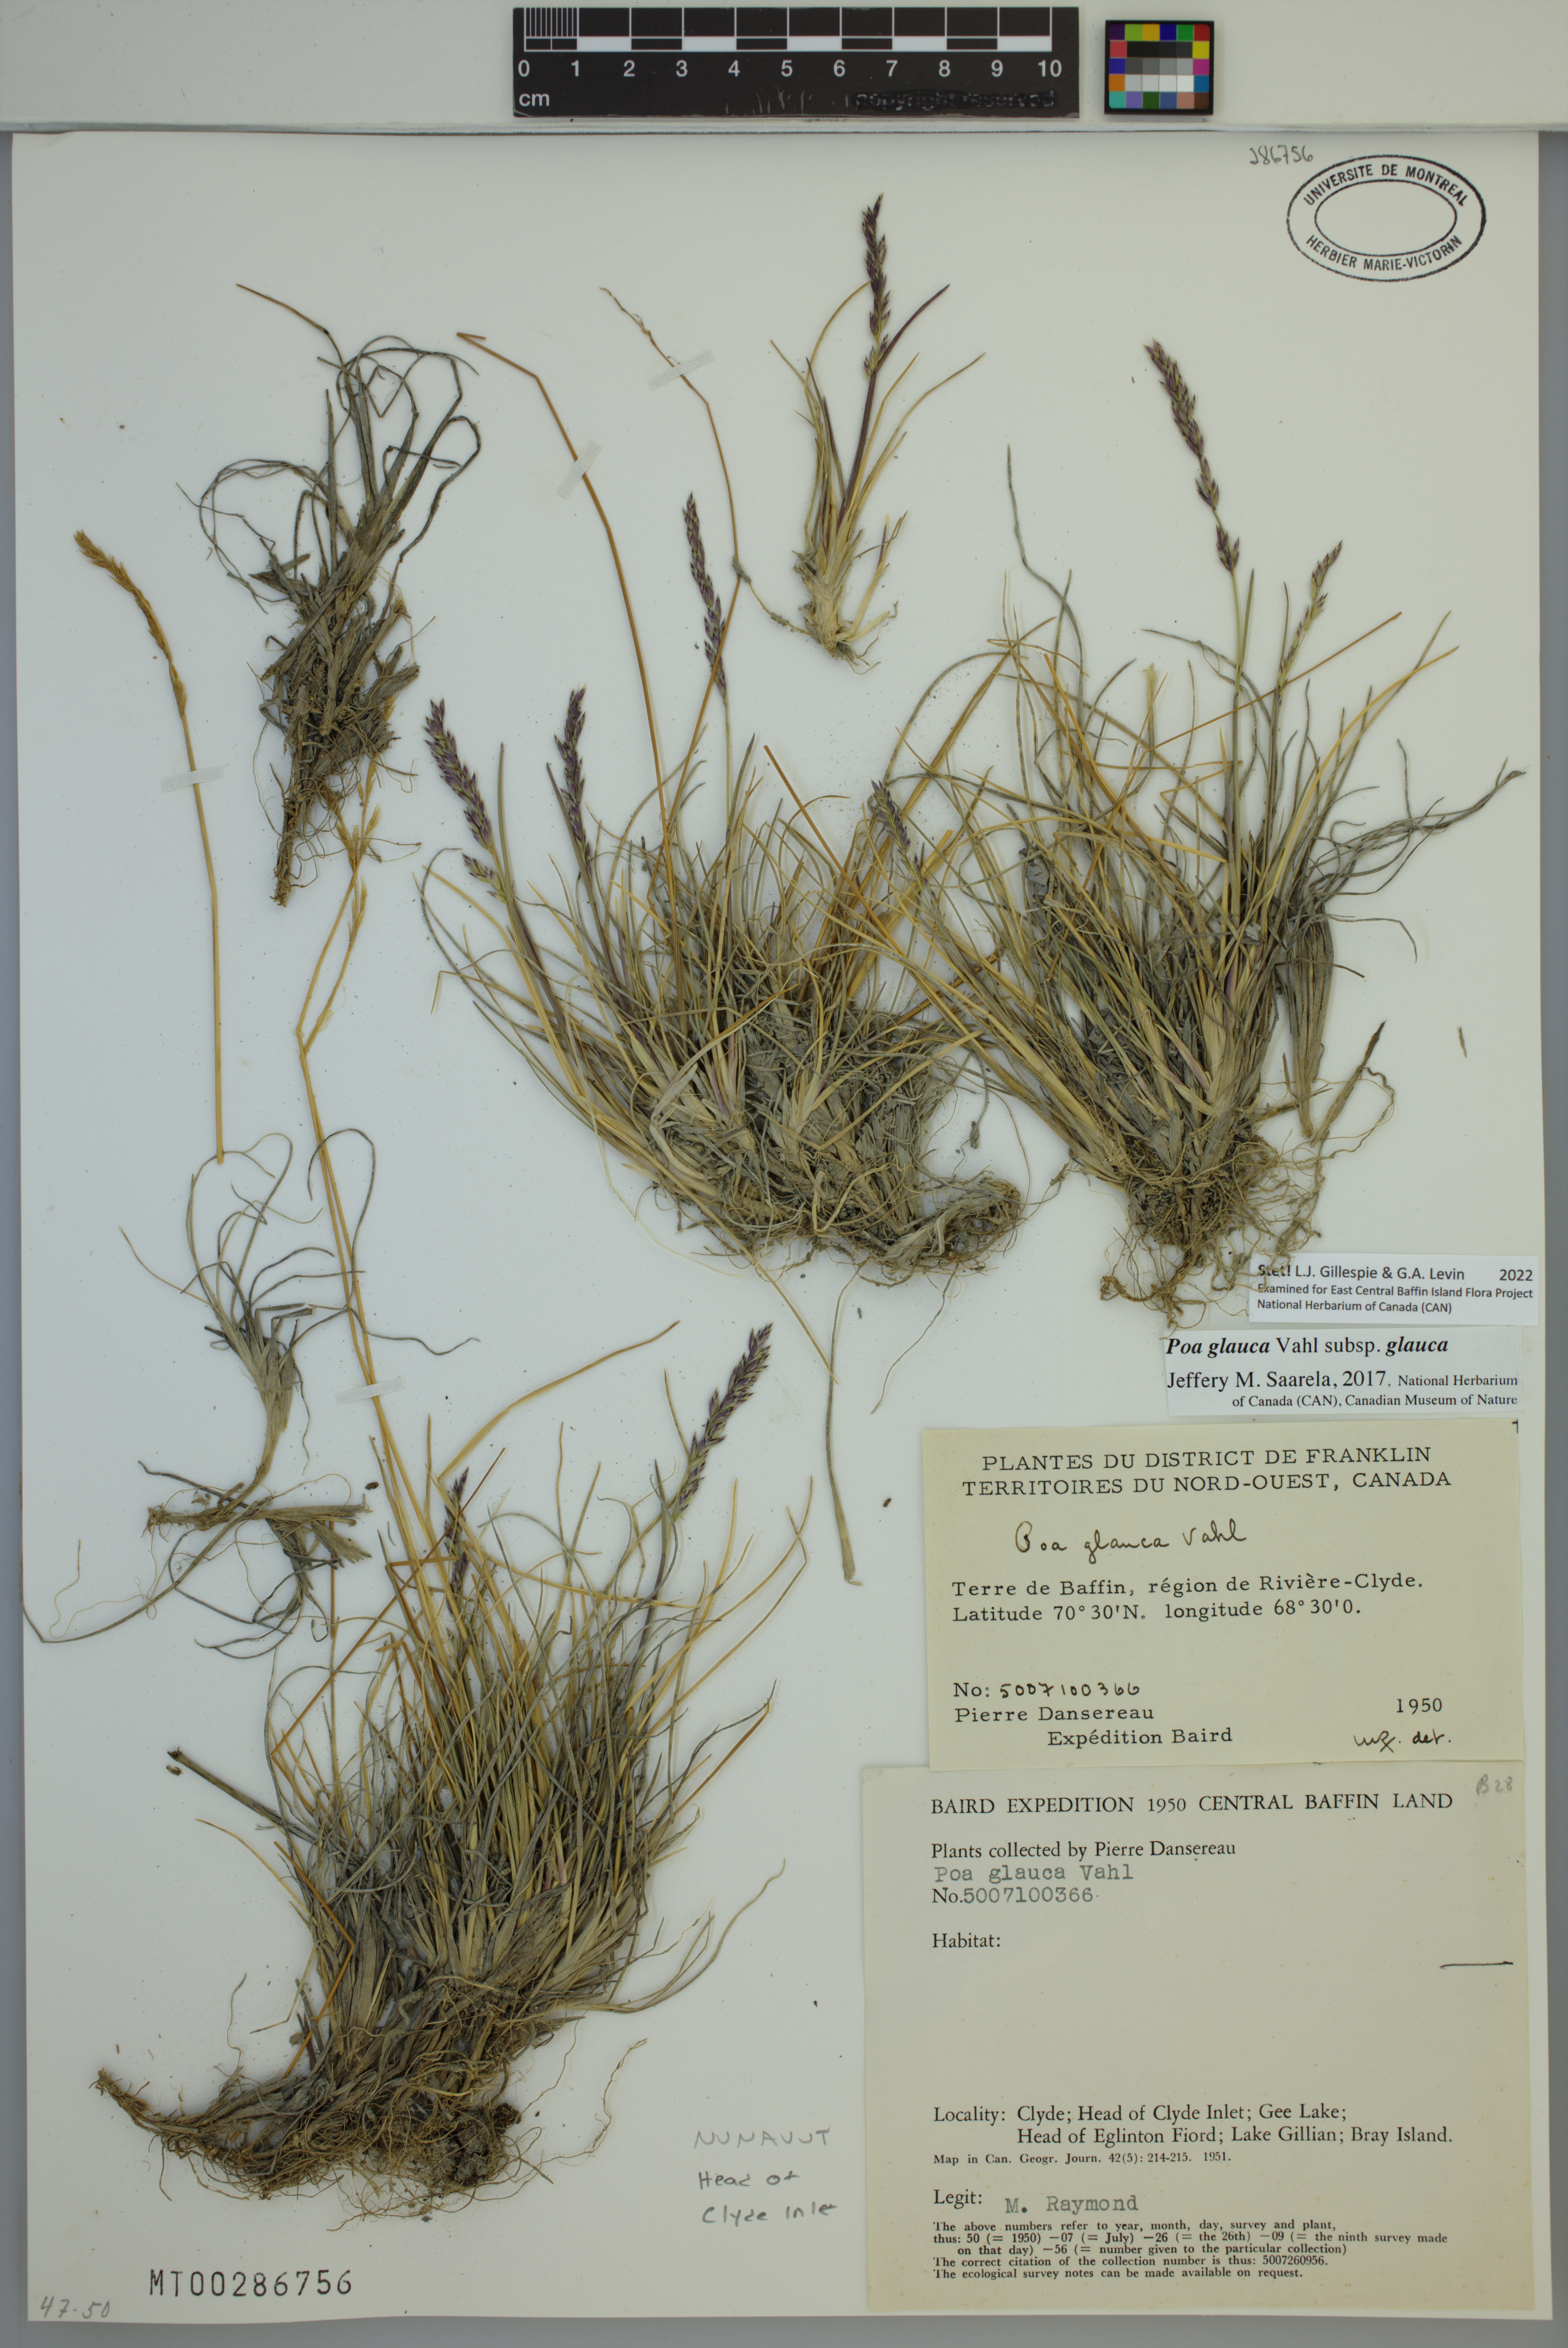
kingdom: Plantae
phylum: Tracheophyta
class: Liliopsida
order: Poales
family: Poaceae
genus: Poa
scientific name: Poa glauca
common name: Glaucous bluegrass
